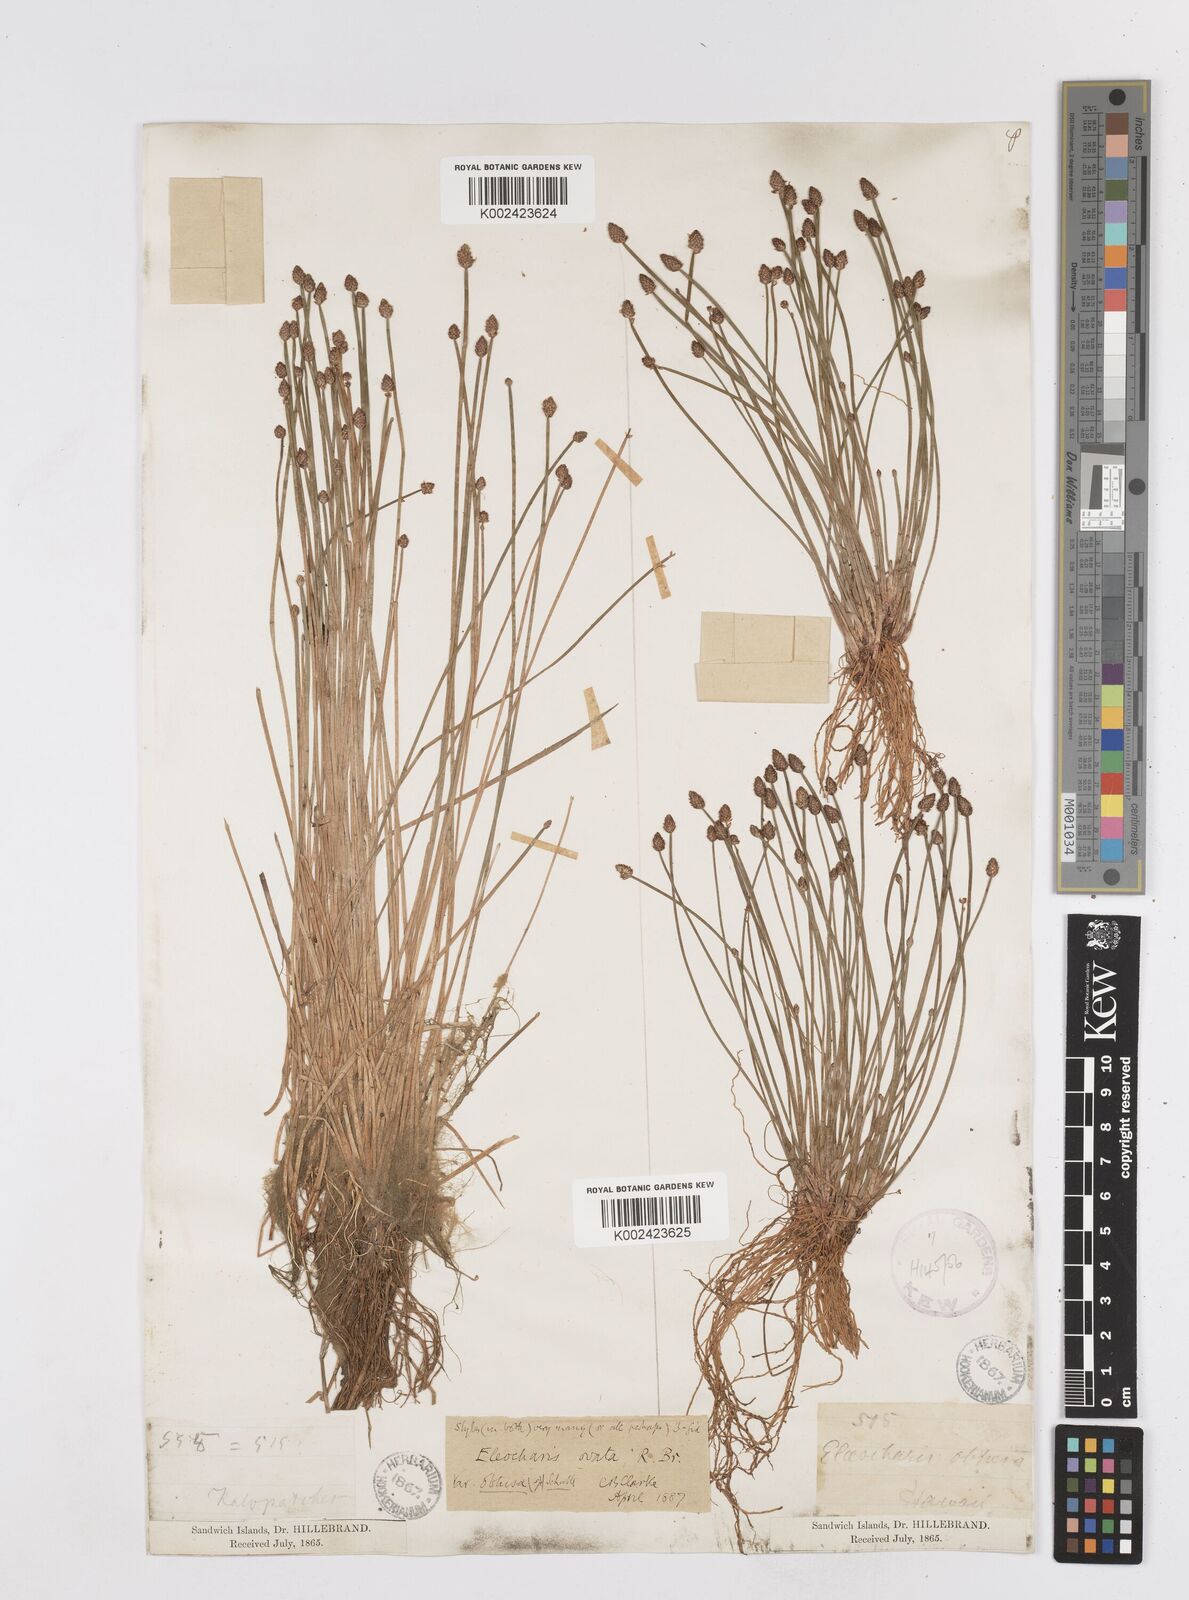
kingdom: Plantae
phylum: Tracheophyta
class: Liliopsida
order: Poales
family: Cyperaceae
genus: Eleocharis
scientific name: Eleocharis obtusa
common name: Blunt spikerush
